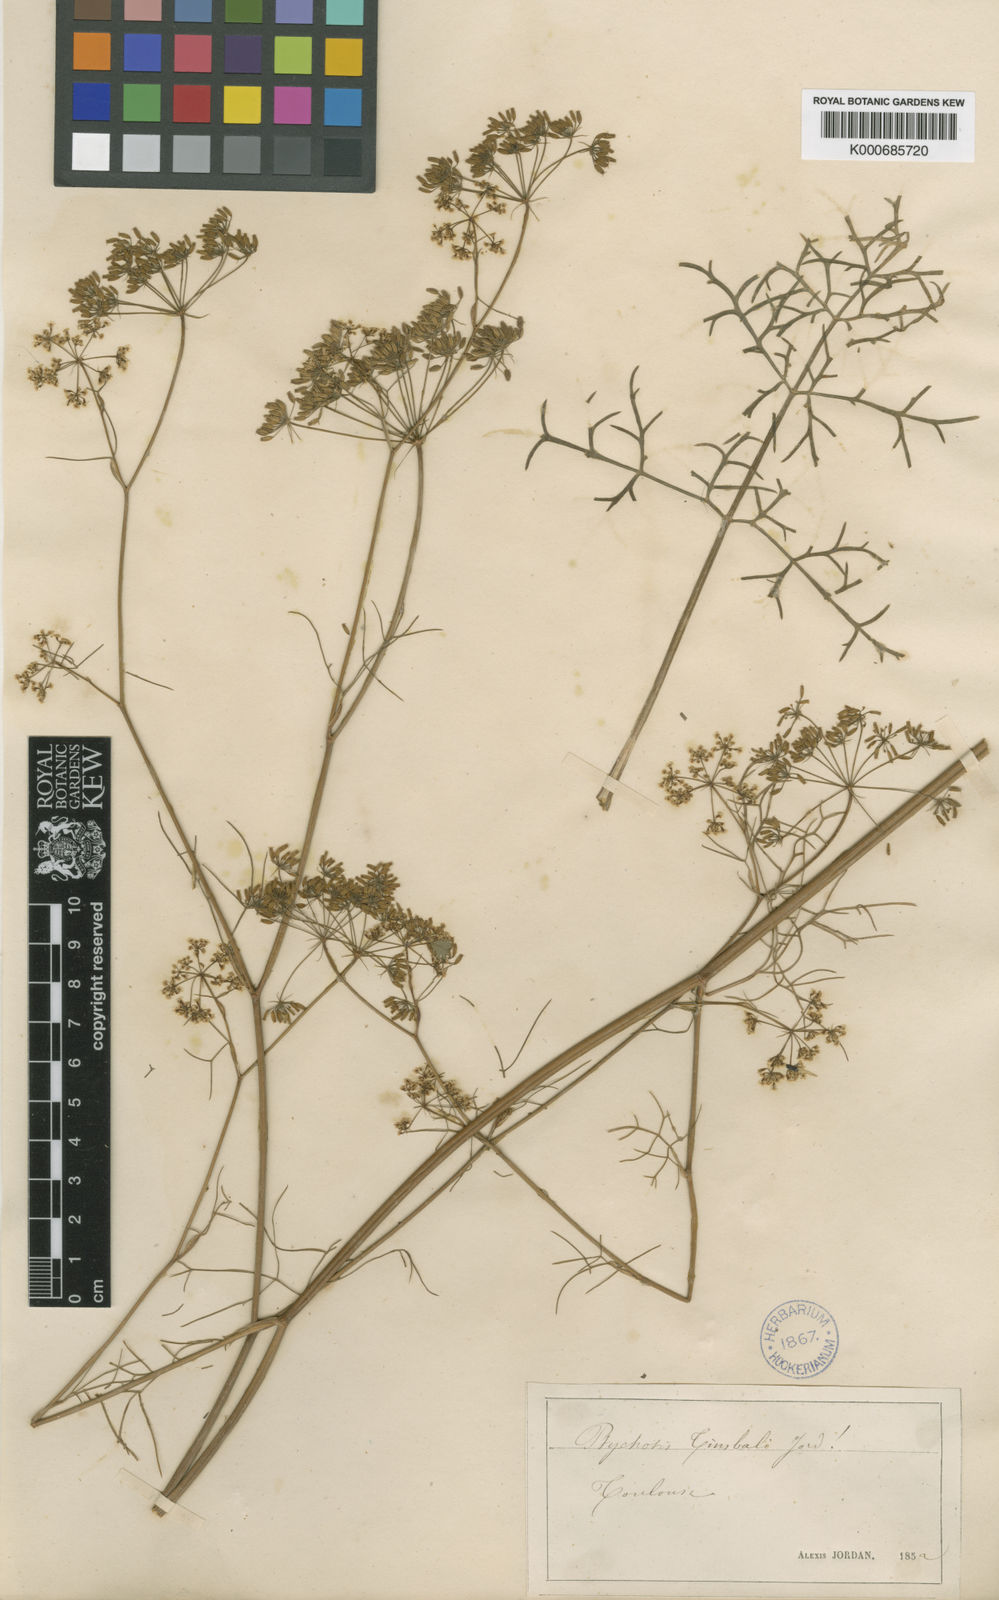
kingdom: Plantae
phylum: Tracheophyta
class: Magnoliopsida
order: Apiales
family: Apiaceae
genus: Ptychotis
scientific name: Ptychotis
